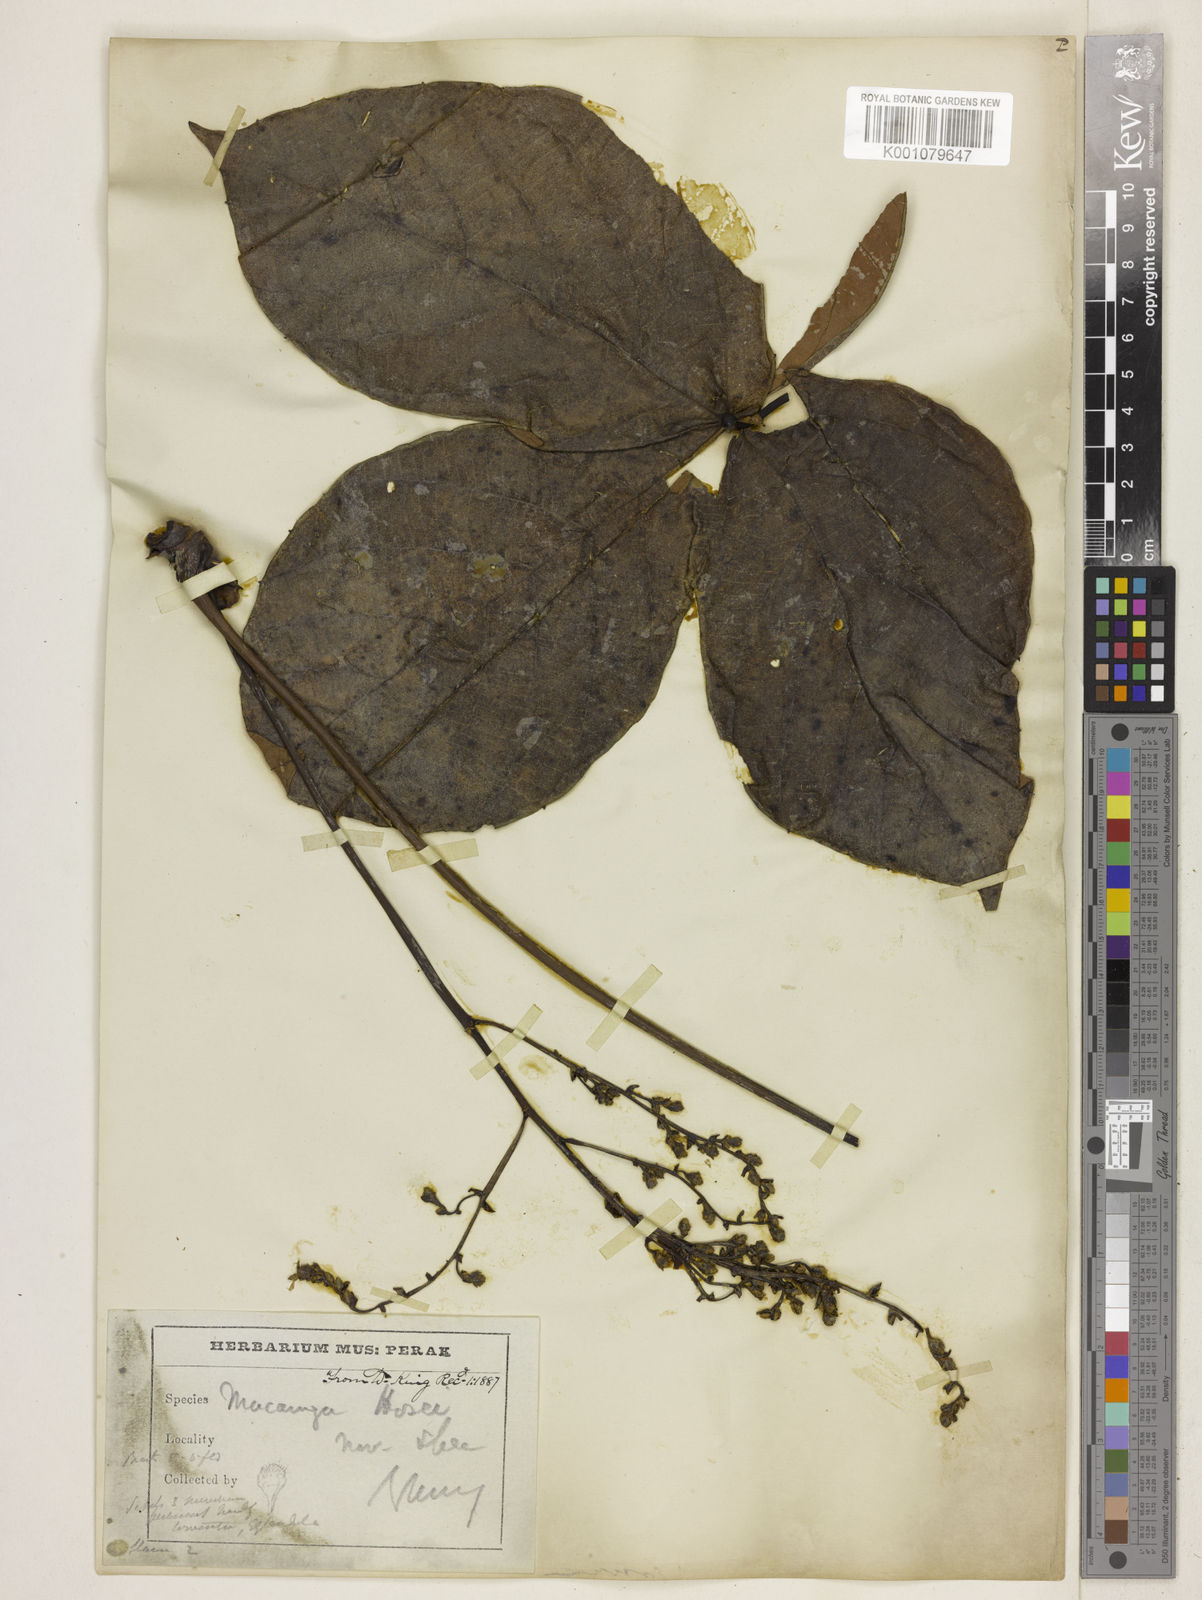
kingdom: Plantae
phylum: Tracheophyta
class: Magnoliopsida
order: Malpighiales
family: Euphorbiaceae
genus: Macaranga
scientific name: Macaranga hosei
